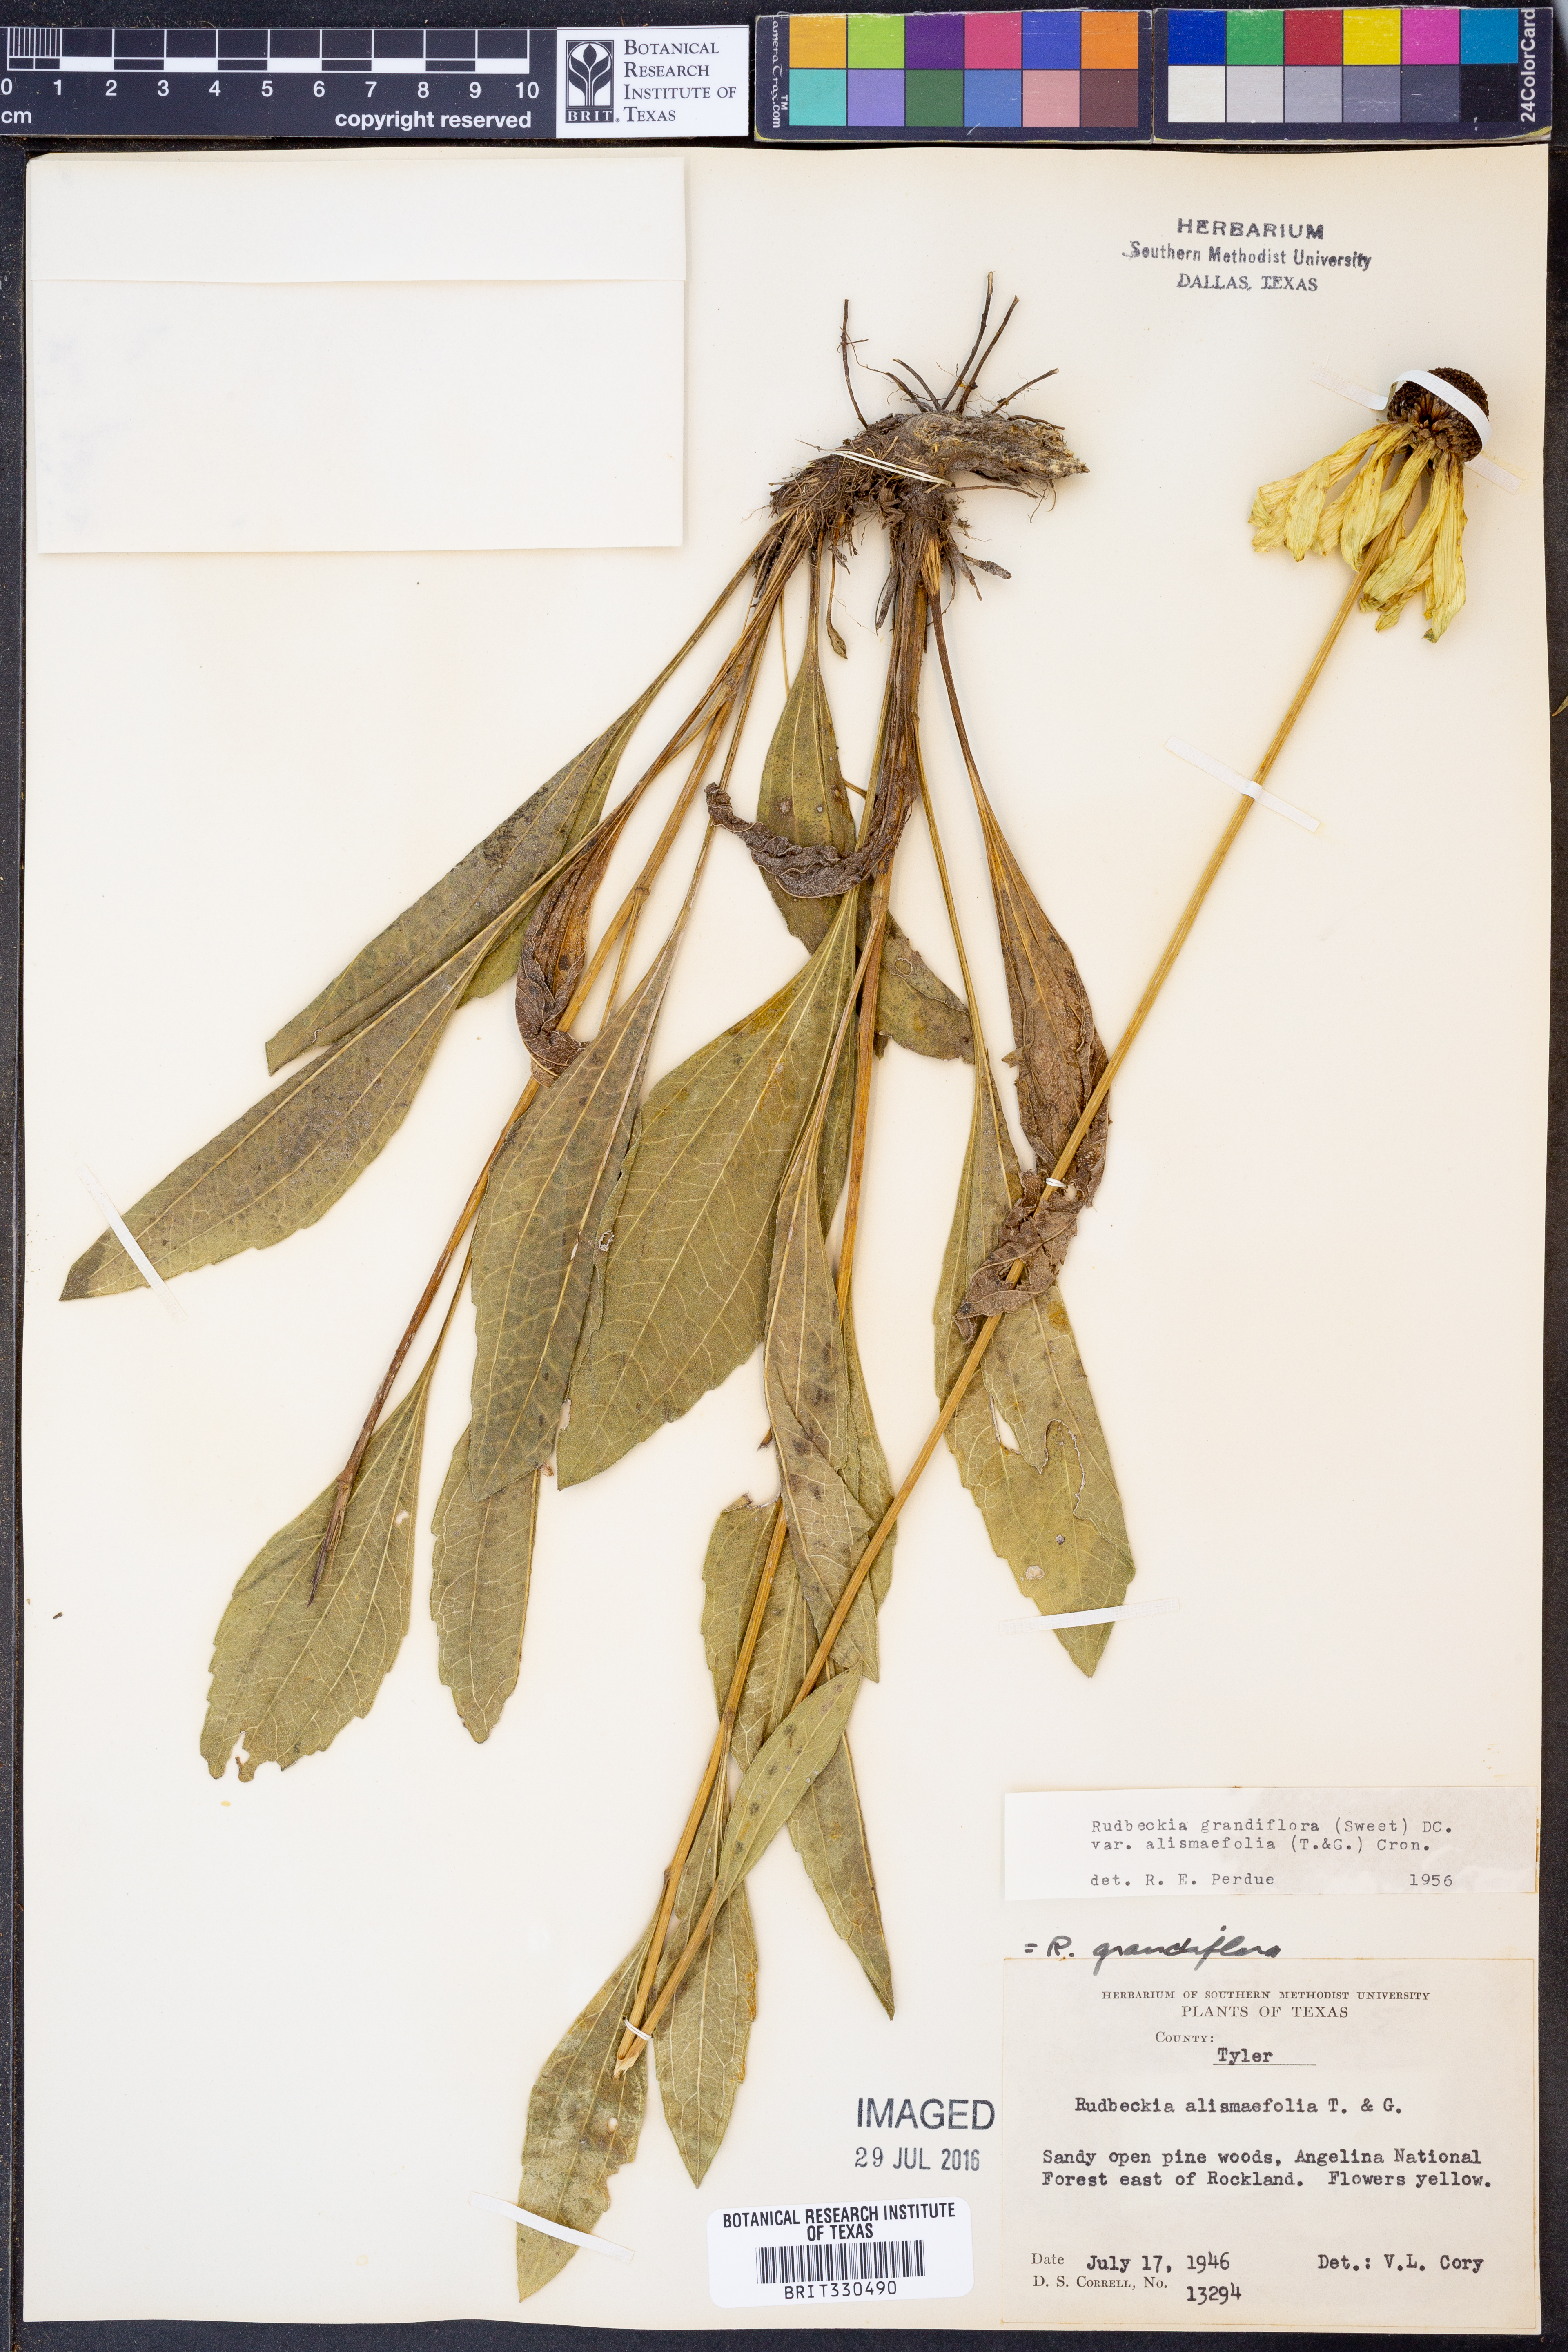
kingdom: Plantae
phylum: Tracheophyta
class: Magnoliopsida
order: Asterales
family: Asteraceae
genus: Rudbeckia
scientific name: Rudbeckia grandiflora
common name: Large-flowered coneflower
